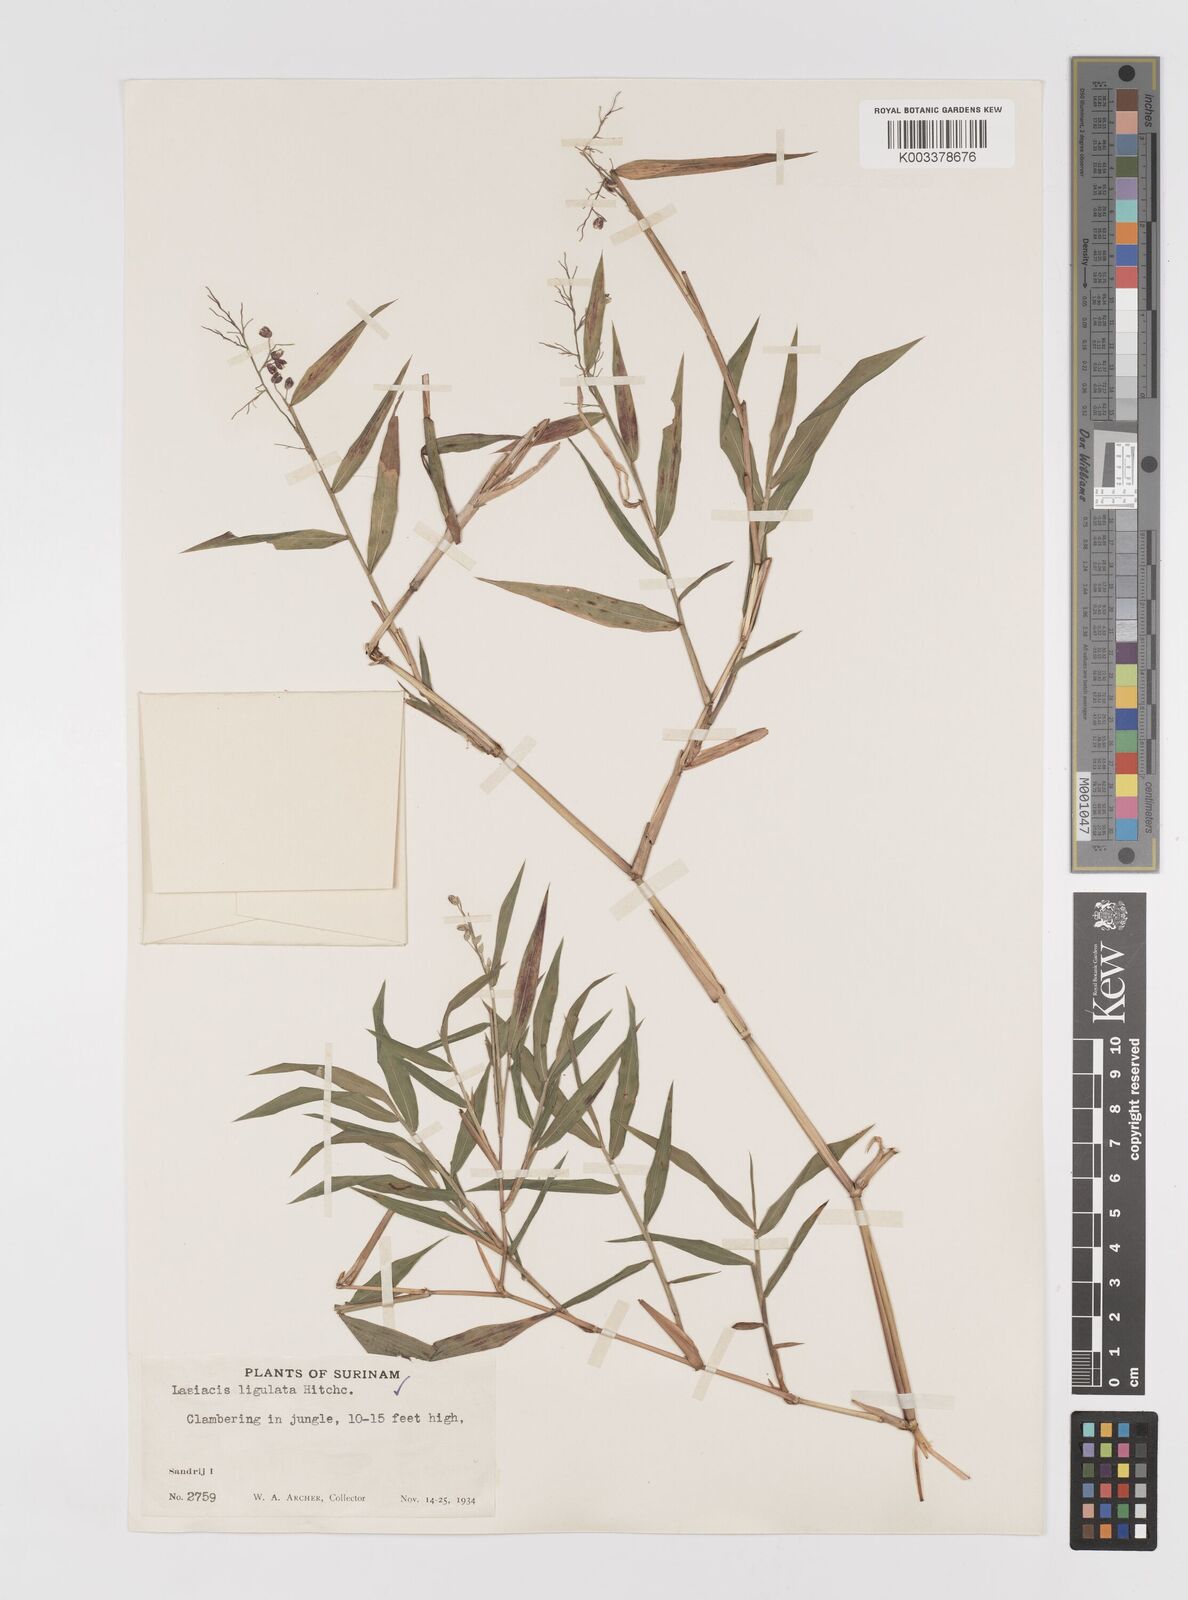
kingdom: Plantae
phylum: Tracheophyta
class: Liliopsida
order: Poales
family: Poaceae
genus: Lasiacis
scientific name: Lasiacis ligulata
